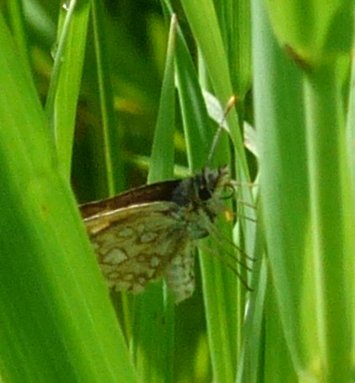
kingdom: Animalia
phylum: Arthropoda
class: Insecta
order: Lepidoptera
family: Hesperiidae
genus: Carterocephalus
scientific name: Carterocephalus palaemon
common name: Chequered Skipper
